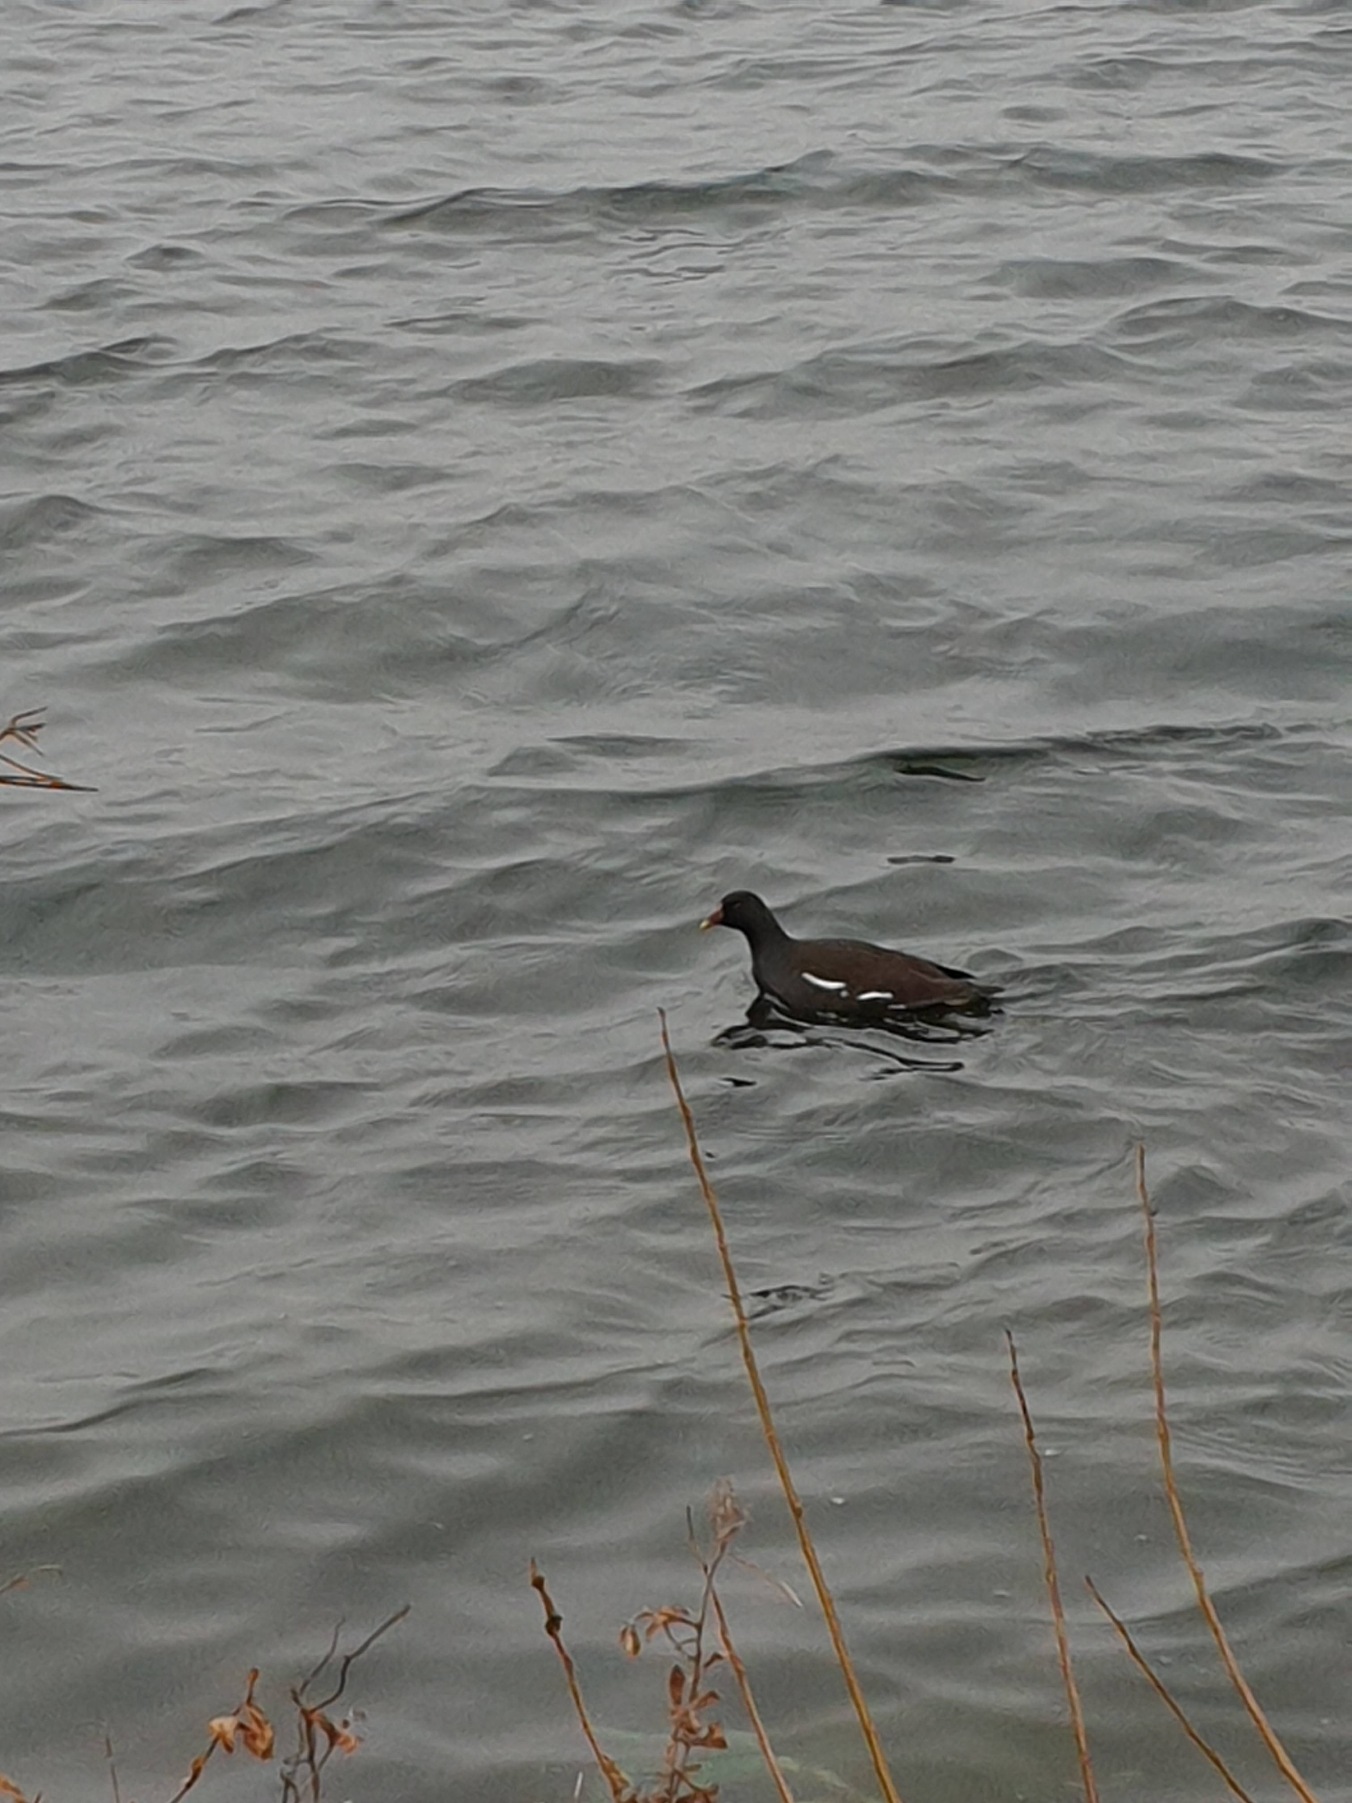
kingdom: Animalia
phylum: Chordata
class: Aves
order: Gruiformes
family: Rallidae
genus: Gallinula
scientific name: Gallinula chloropus
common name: Grønbenet rørhøne
